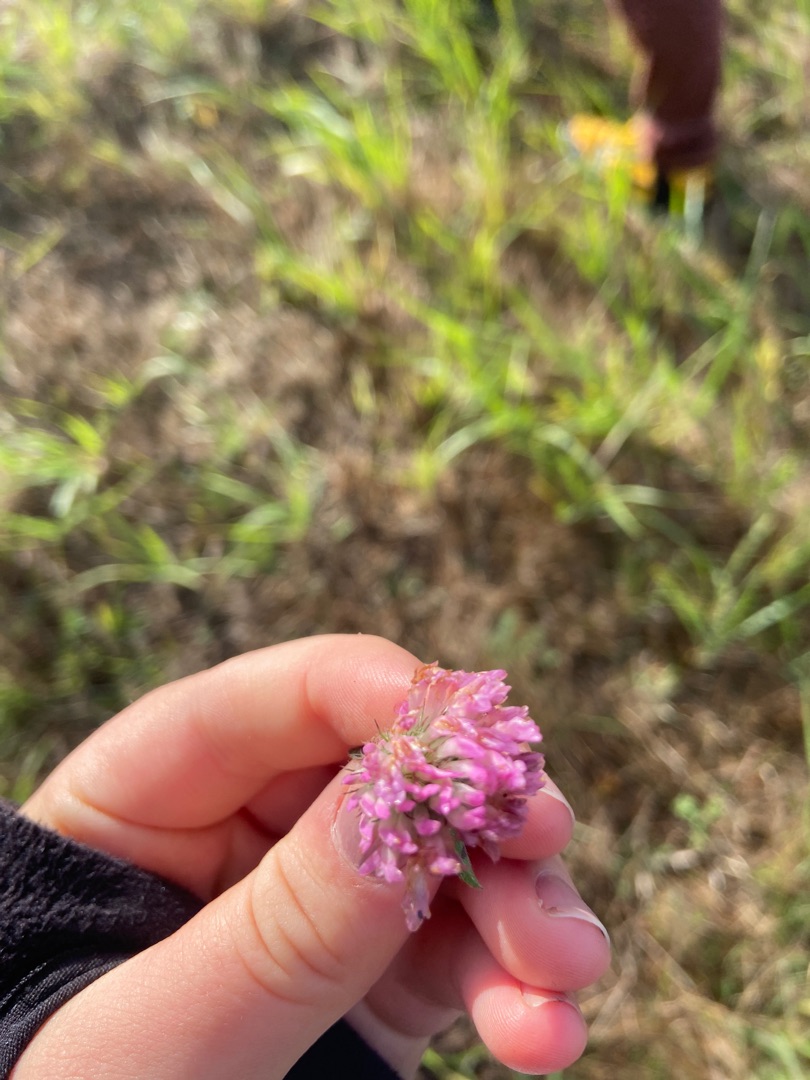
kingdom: Plantae
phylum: Tracheophyta
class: Magnoliopsida
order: Fabales
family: Fabaceae
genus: Trifolium
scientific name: Trifolium pratense
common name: Rød-kløver
